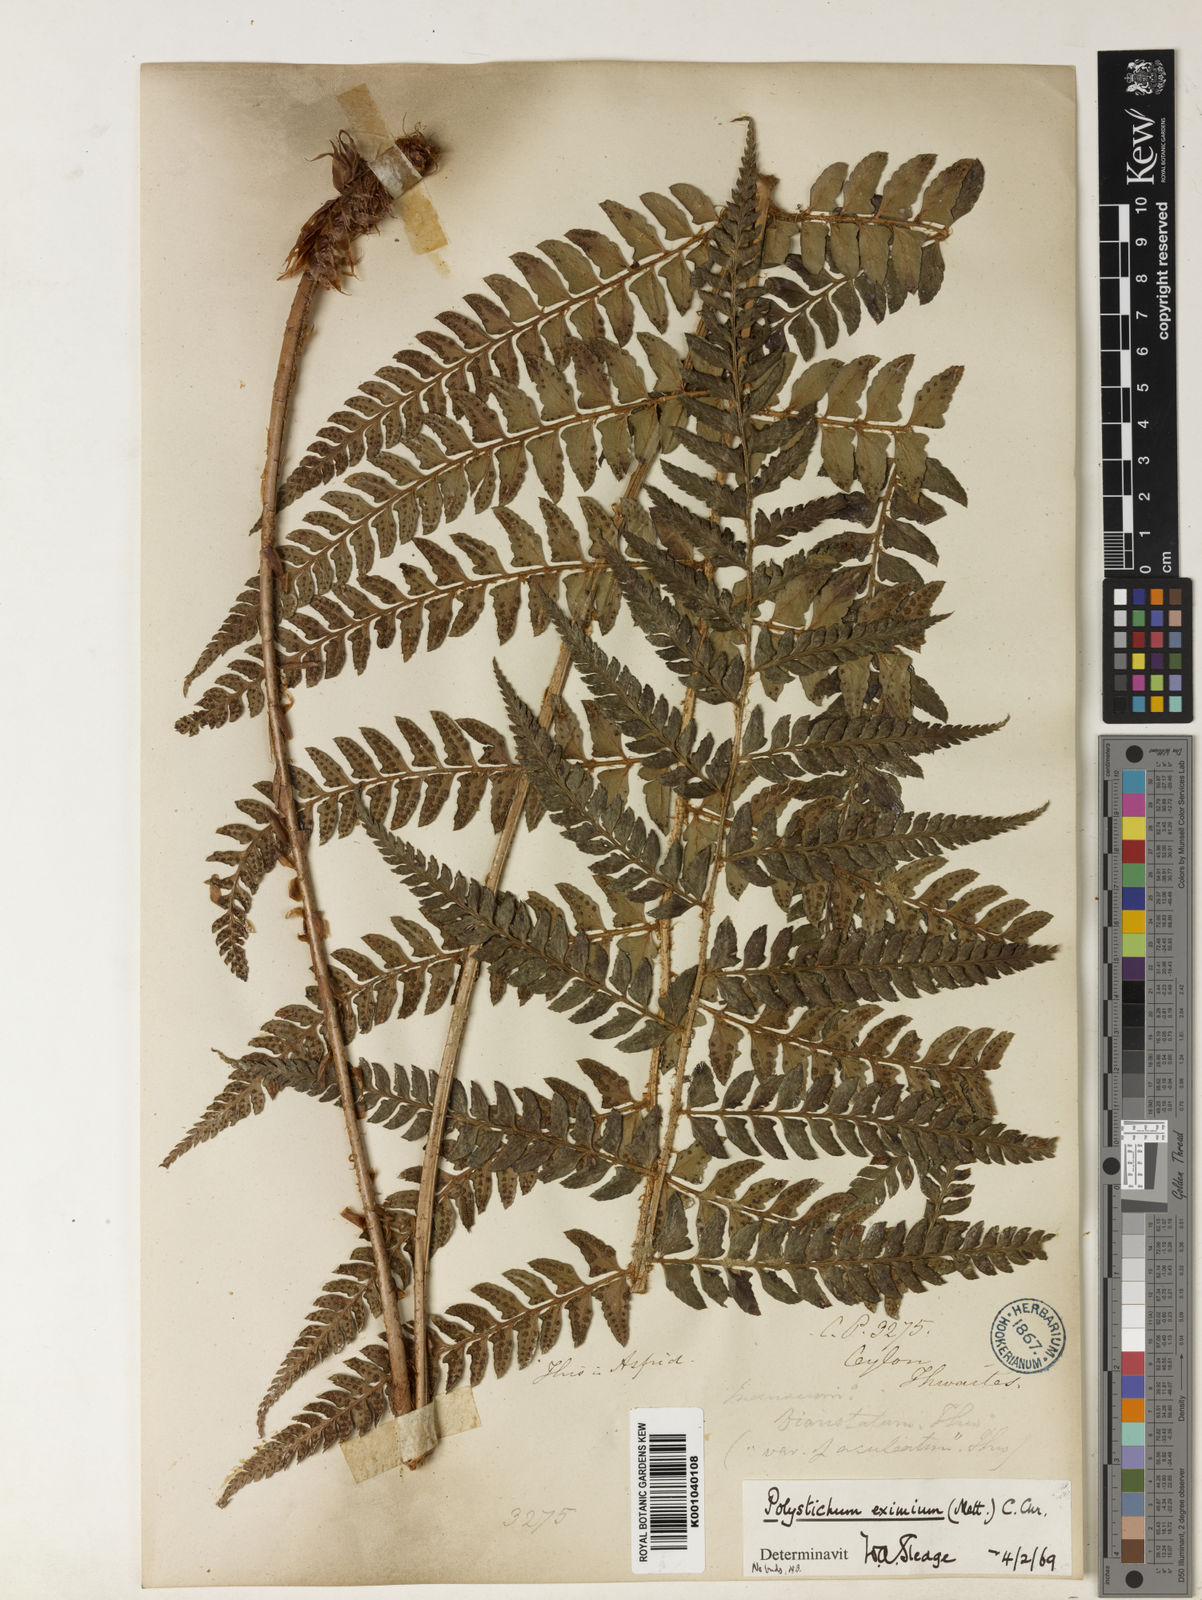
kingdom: Plantae
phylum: Tracheophyta
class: Polypodiopsida
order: Polypodiales
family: Dryopteridaceae
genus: Polystichum
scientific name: Polystichum anomalum
